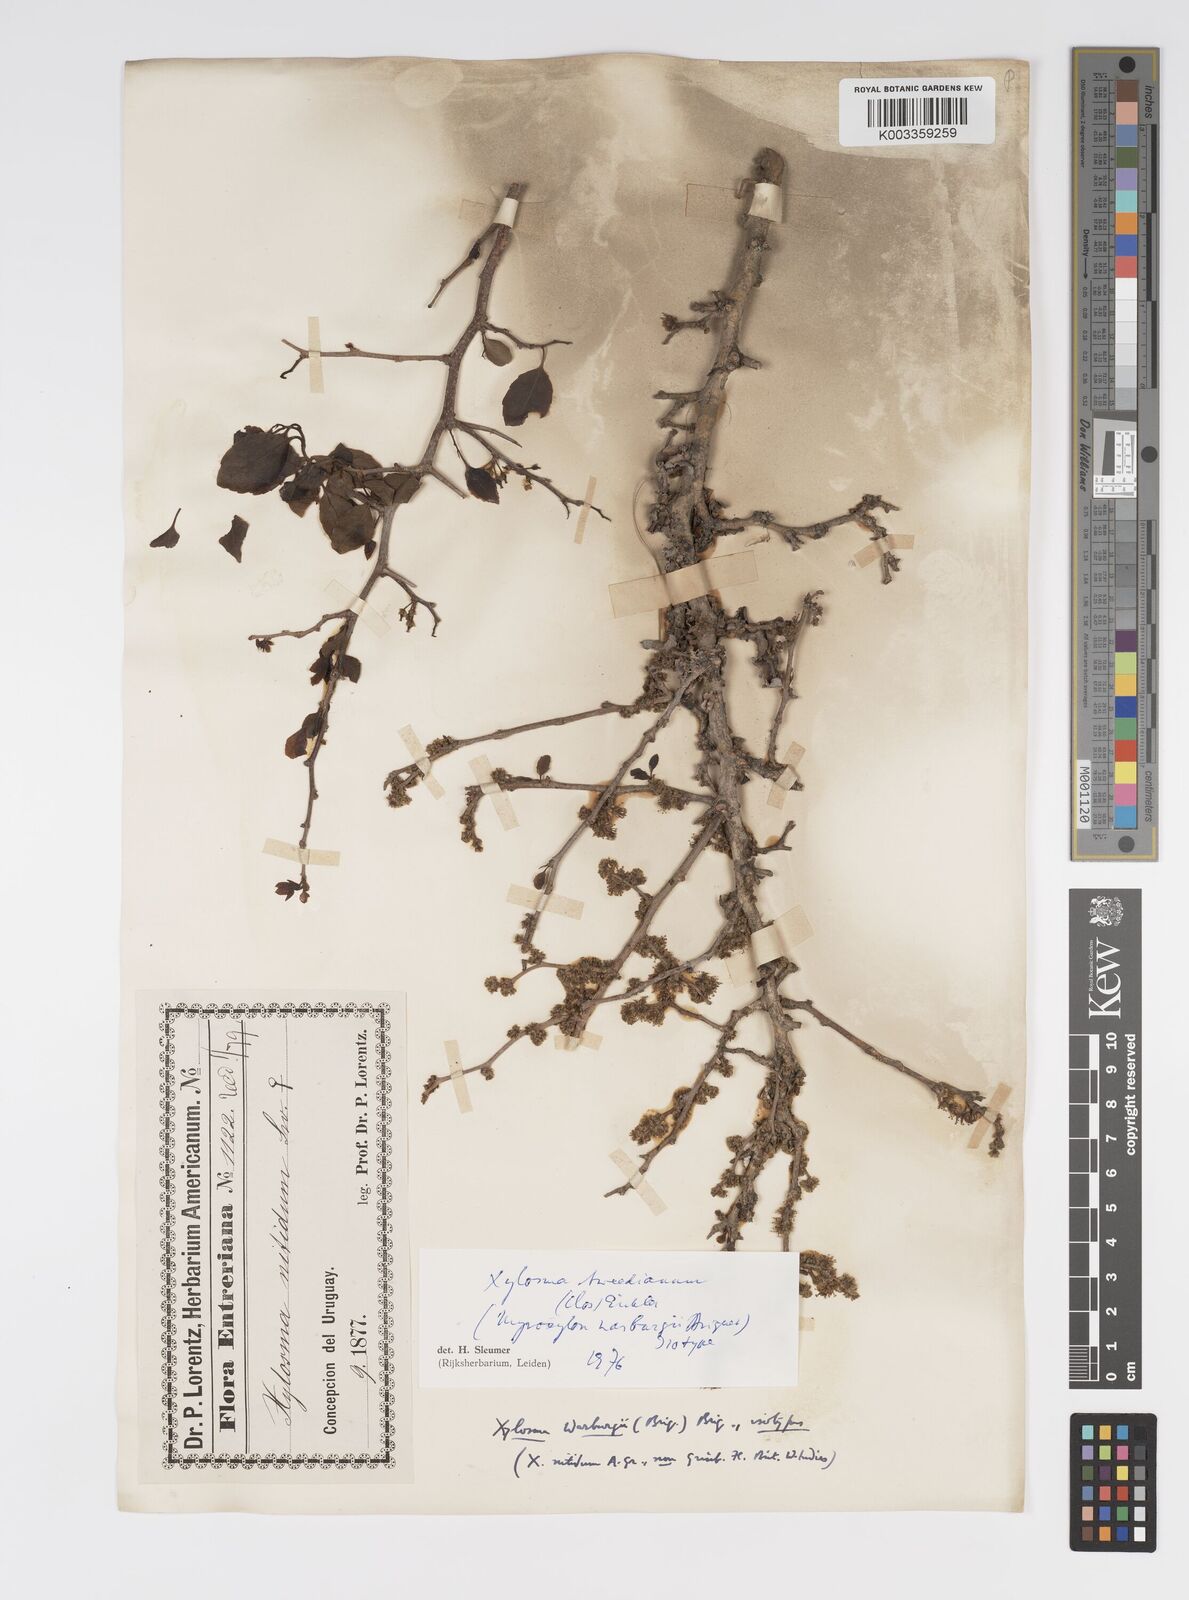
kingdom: Plantae
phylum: Tracheophyta
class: Magnoliopsida
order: Malpighiales
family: Salicaceae
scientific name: Salicaceae
